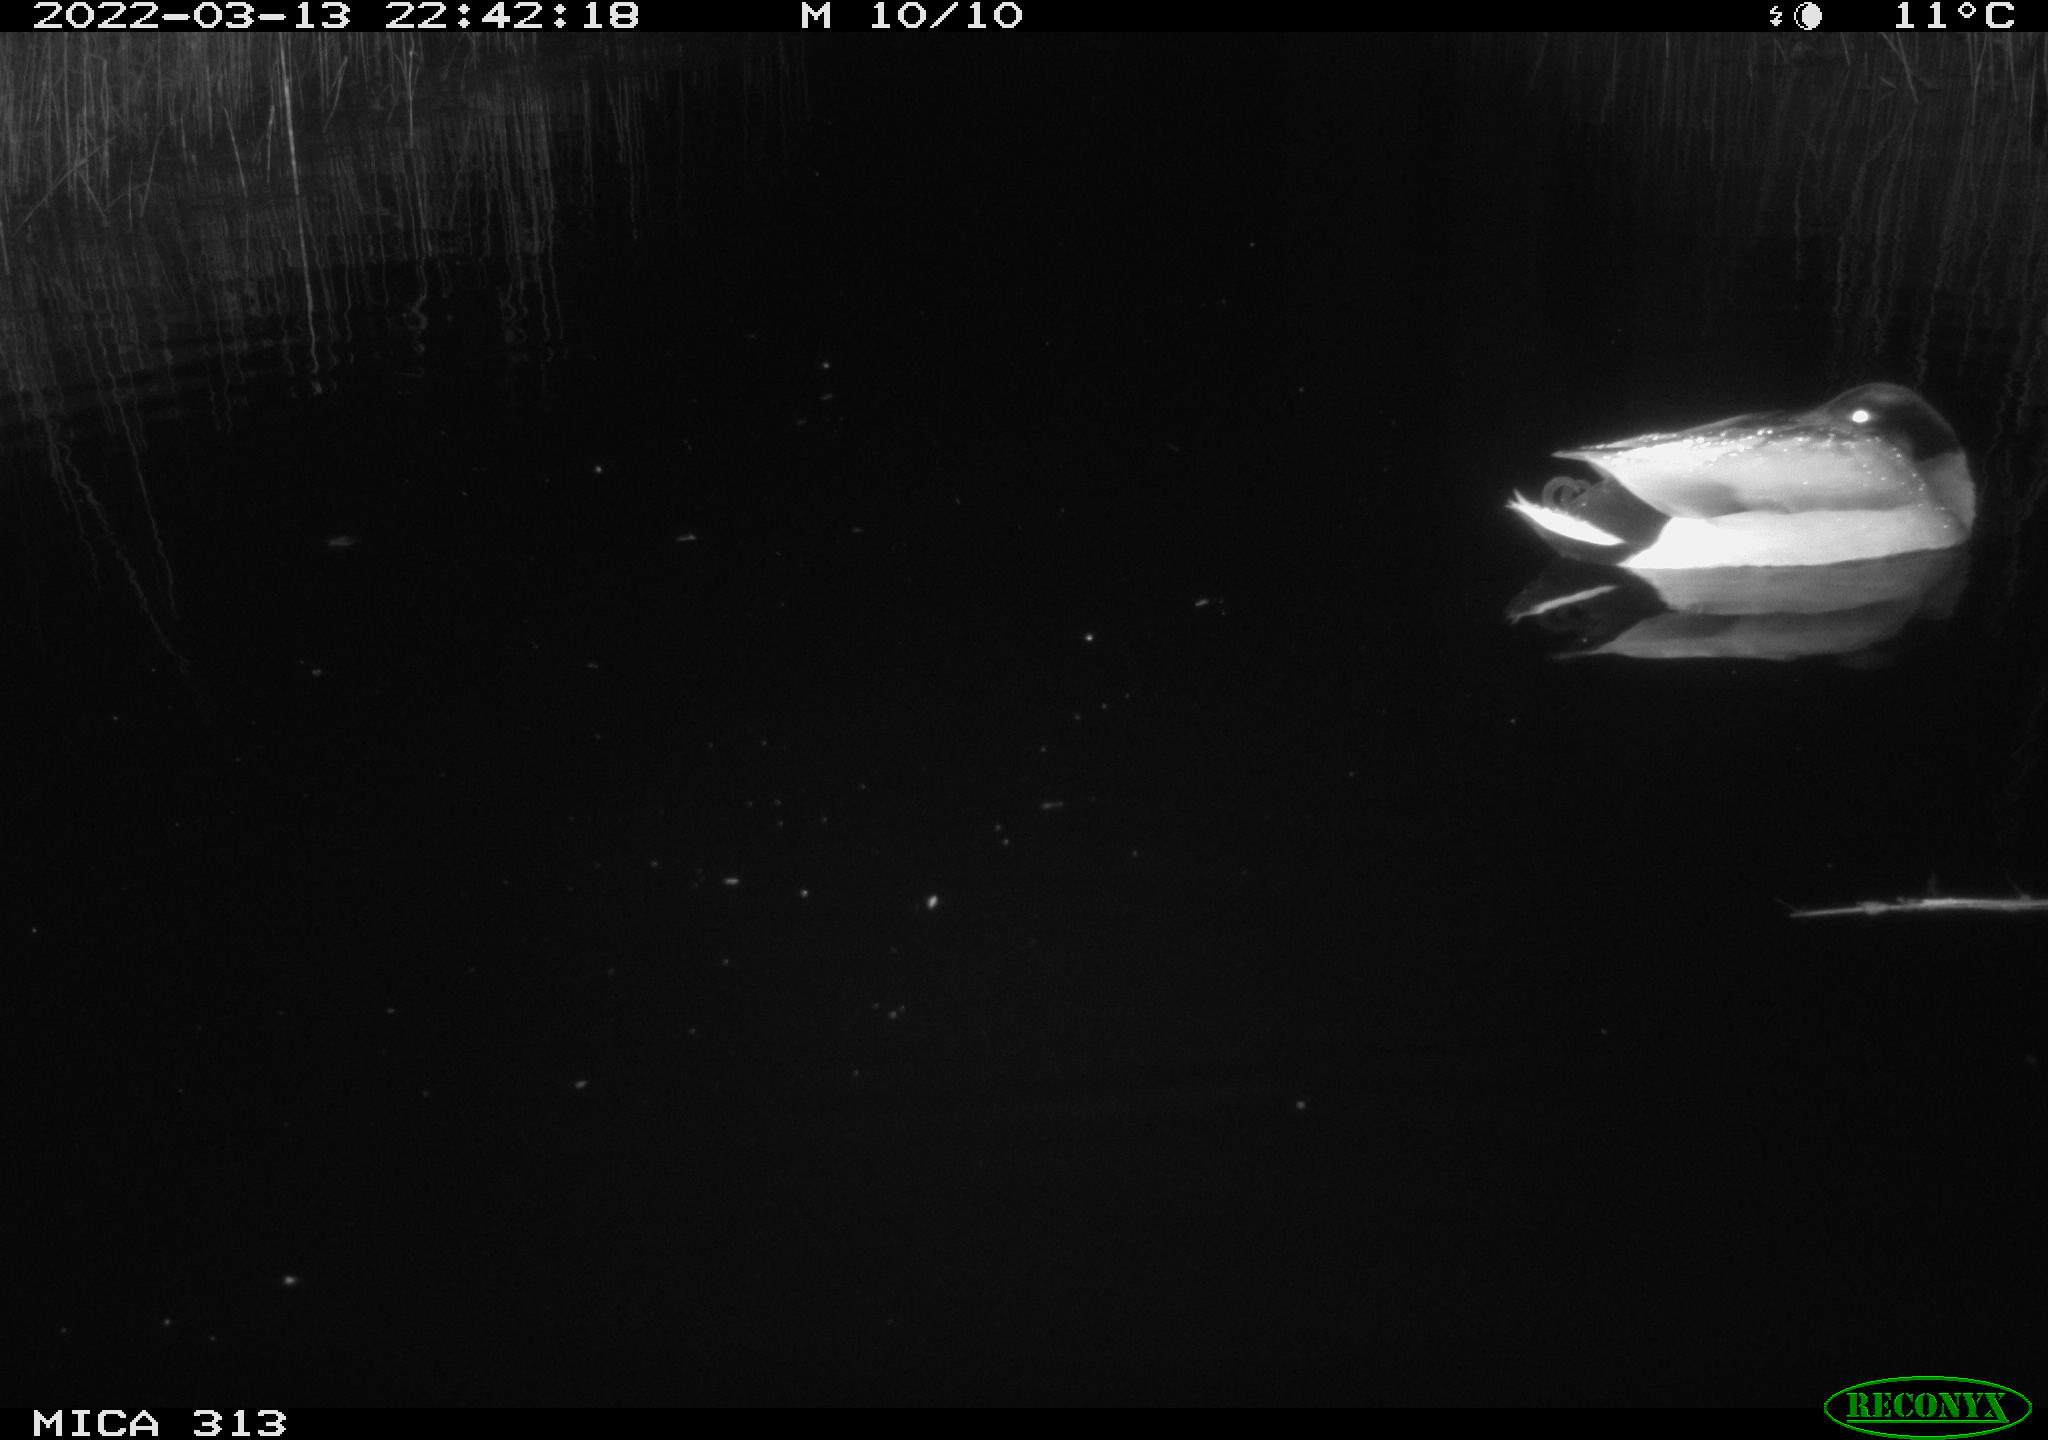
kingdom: Animalia
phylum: Chordata
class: Aves
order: Anseriformes
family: Anatidae
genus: Anas
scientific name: Anas platyrhynchos
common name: Mallard
